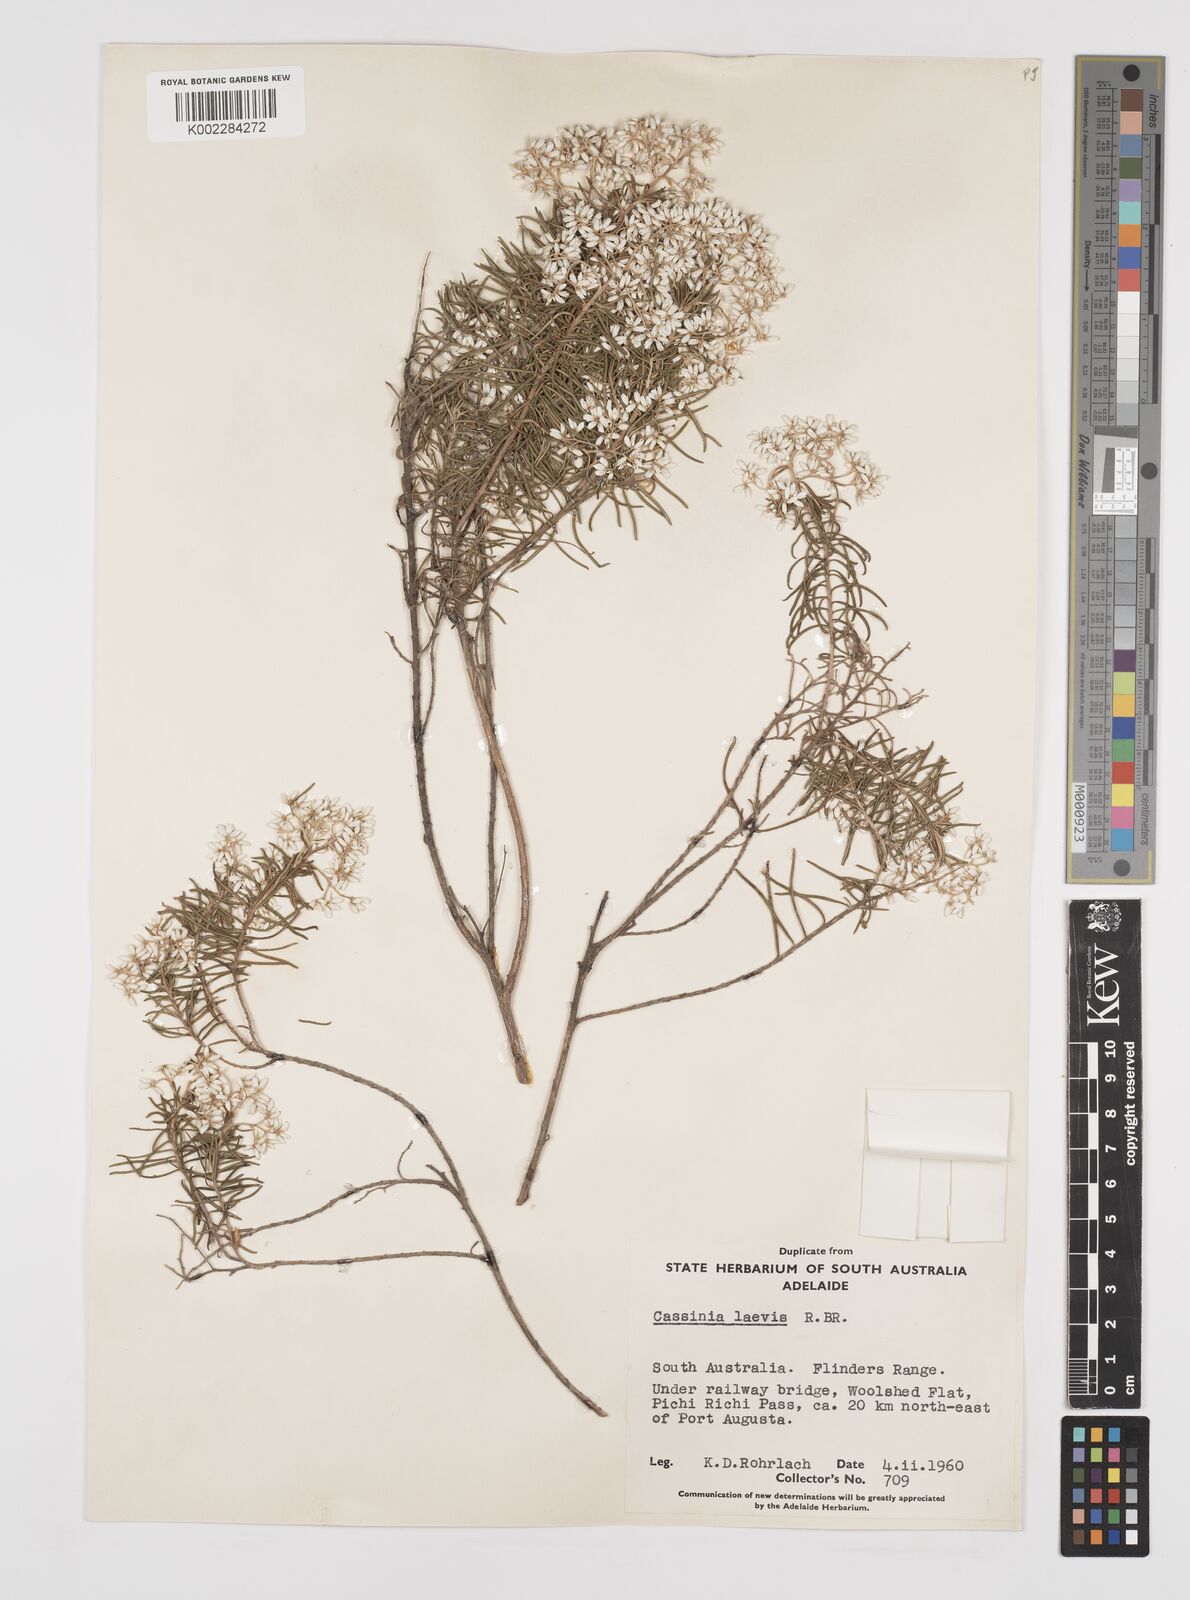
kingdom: Plantae
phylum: Tracheophyta
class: Magnoliopsida
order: Asterales
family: Asteraceae
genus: Cassinia
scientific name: Cassinia laevis
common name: Coughbush
